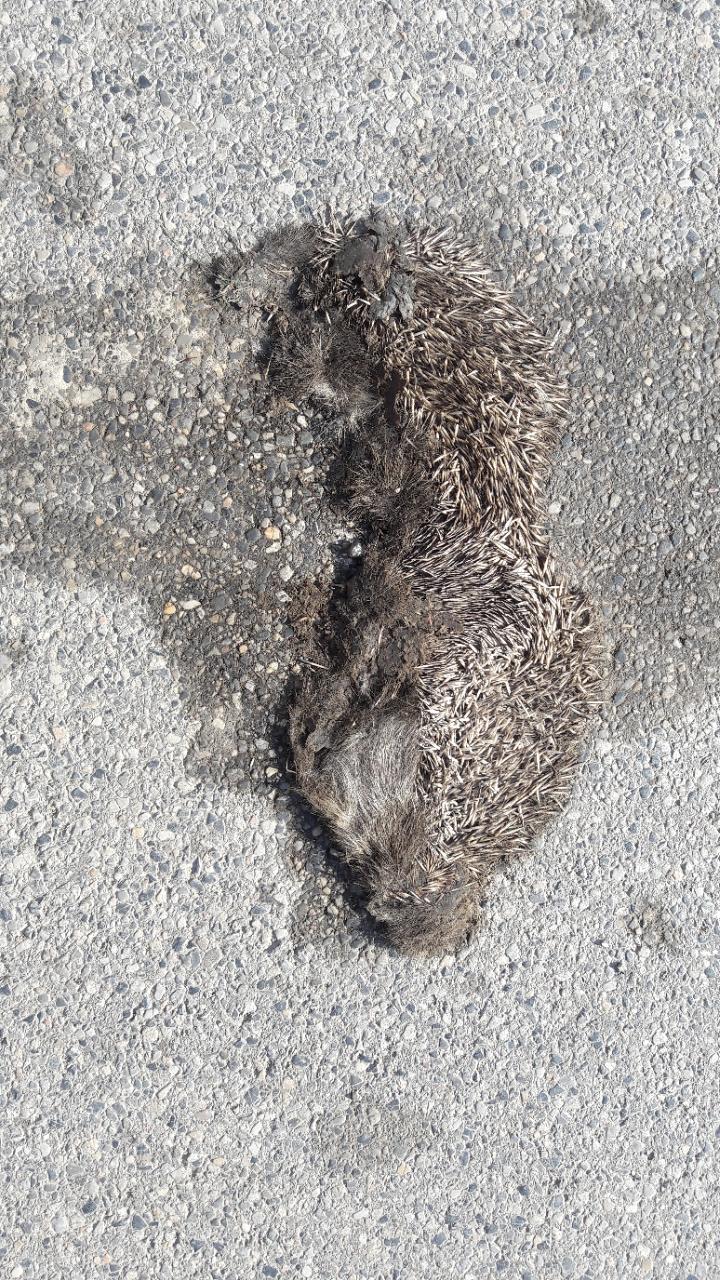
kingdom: Animalia
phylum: Chordata
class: Mammalia
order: Erinaceomorpha
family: Erinaceidae
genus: Erinaceus
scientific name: Erinaceus
